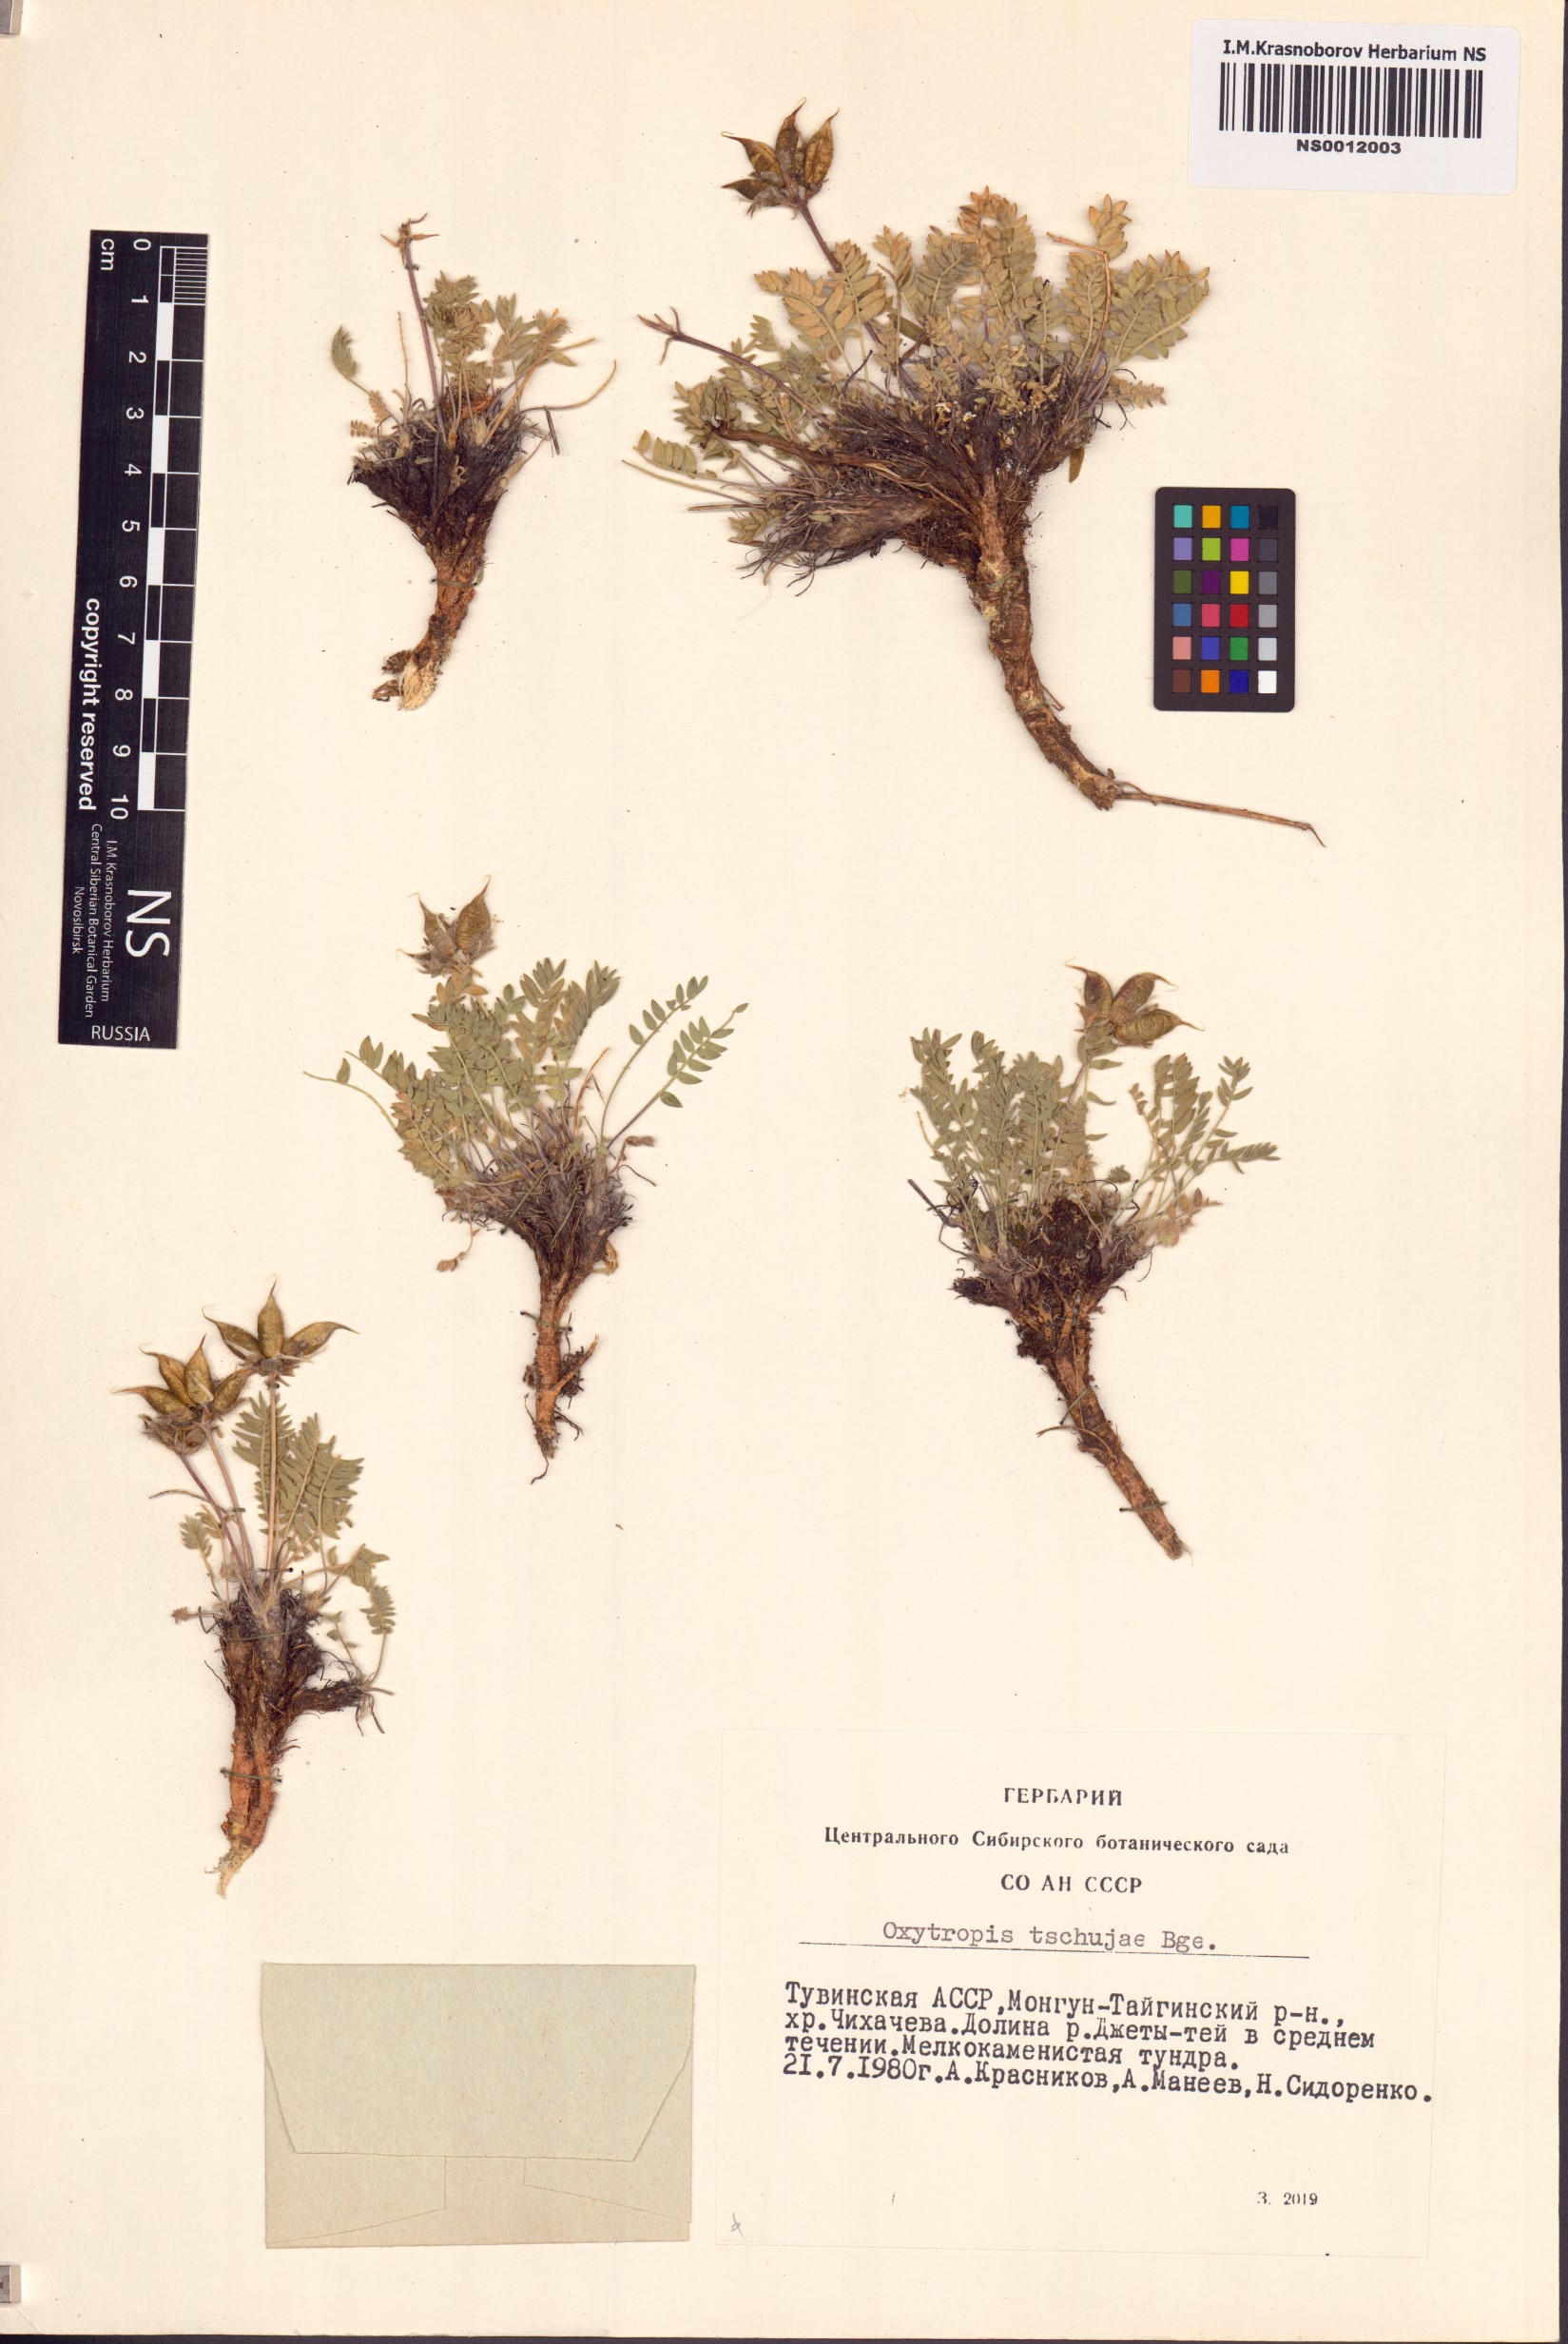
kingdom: Plantae
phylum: Tracheophyta
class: Magnoliopsida
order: Fabales
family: Fabaceae
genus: Oxytropis
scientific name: Oxytropis tschujae
